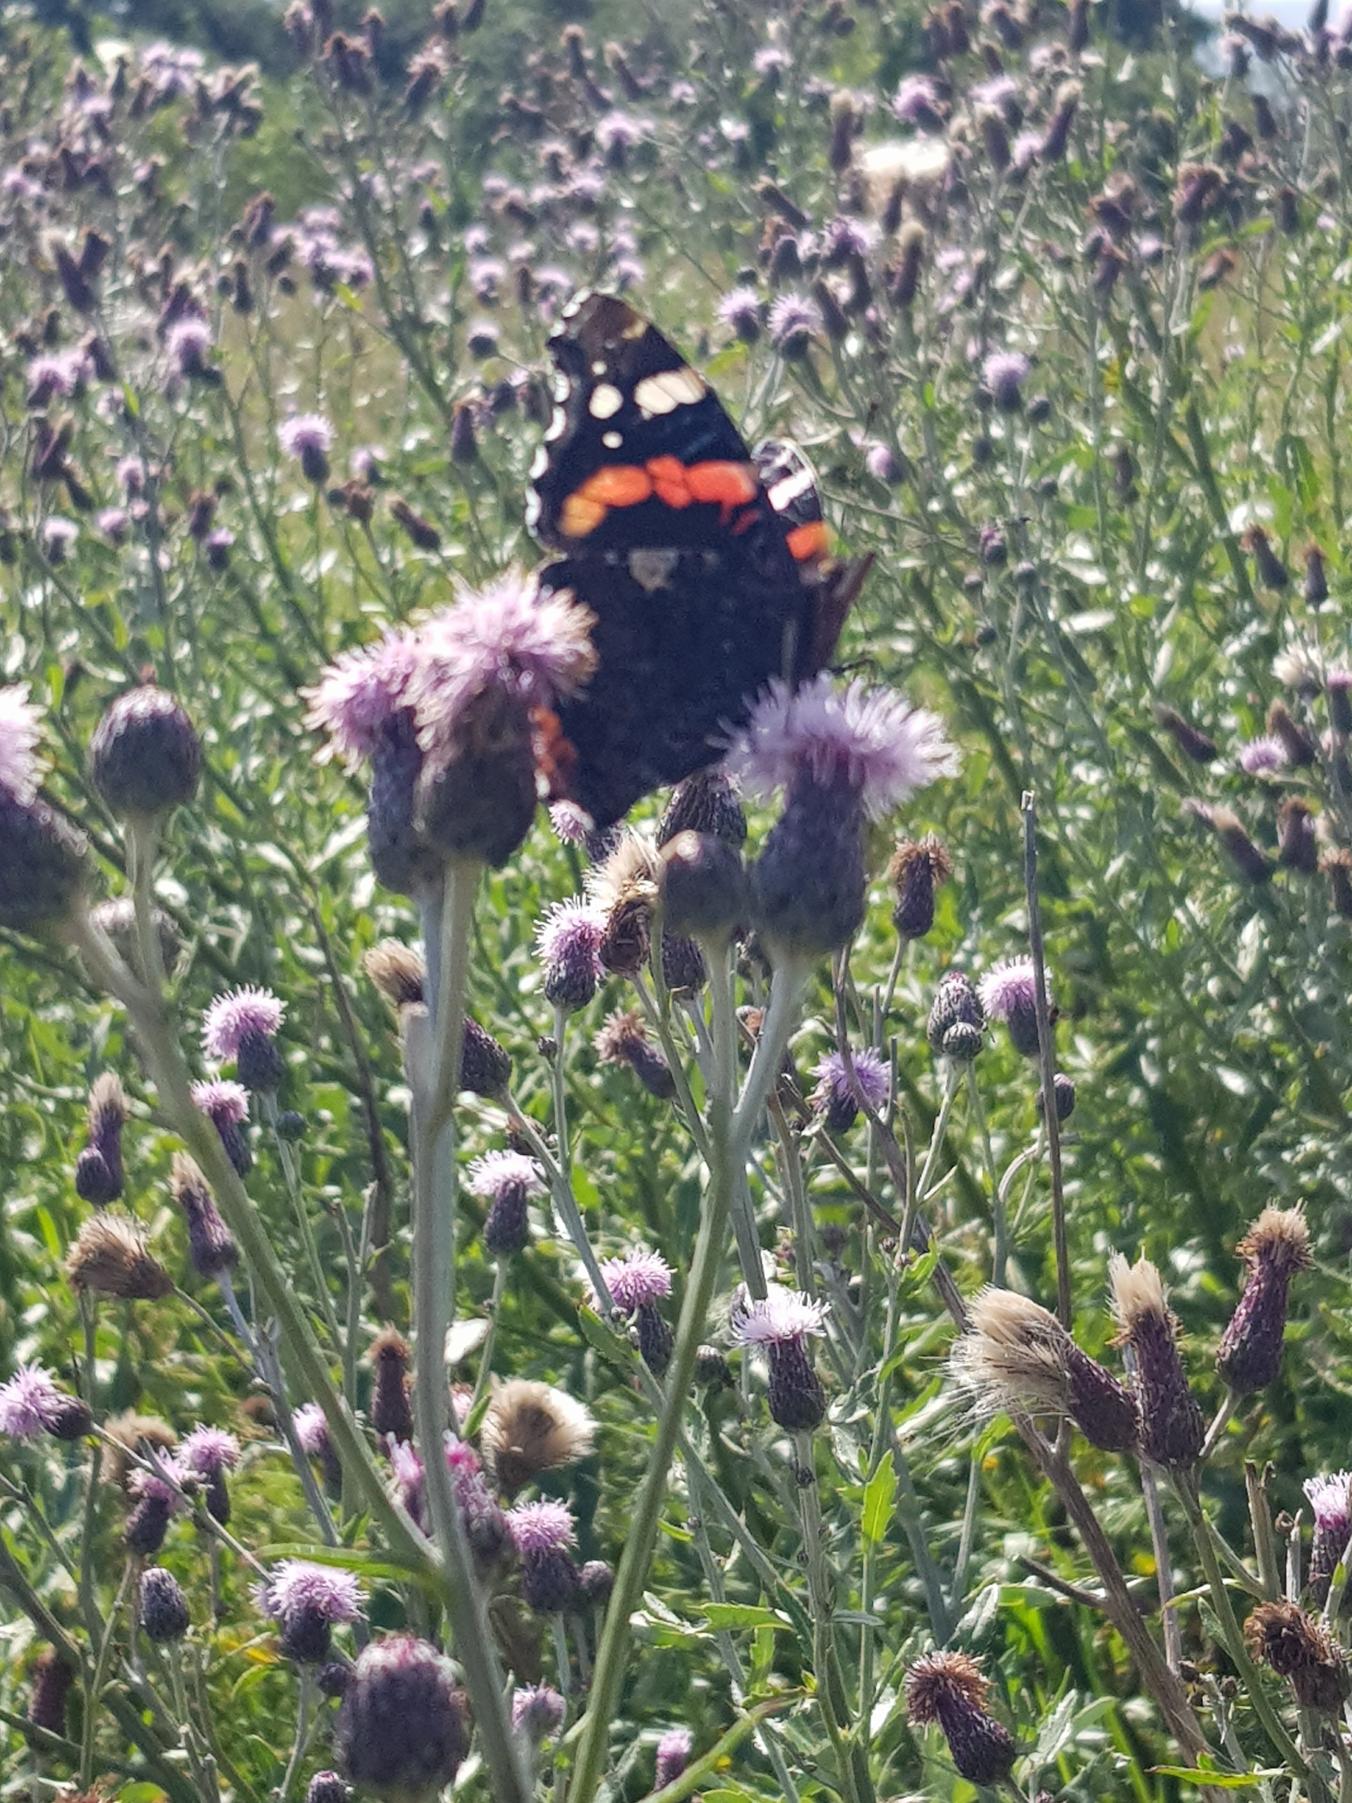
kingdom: Animalia
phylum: Arthropoda
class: Insecta
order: Lepidoptera
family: Nymphalidae
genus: Vanessa
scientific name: Vanessa atalanta
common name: Admiral
